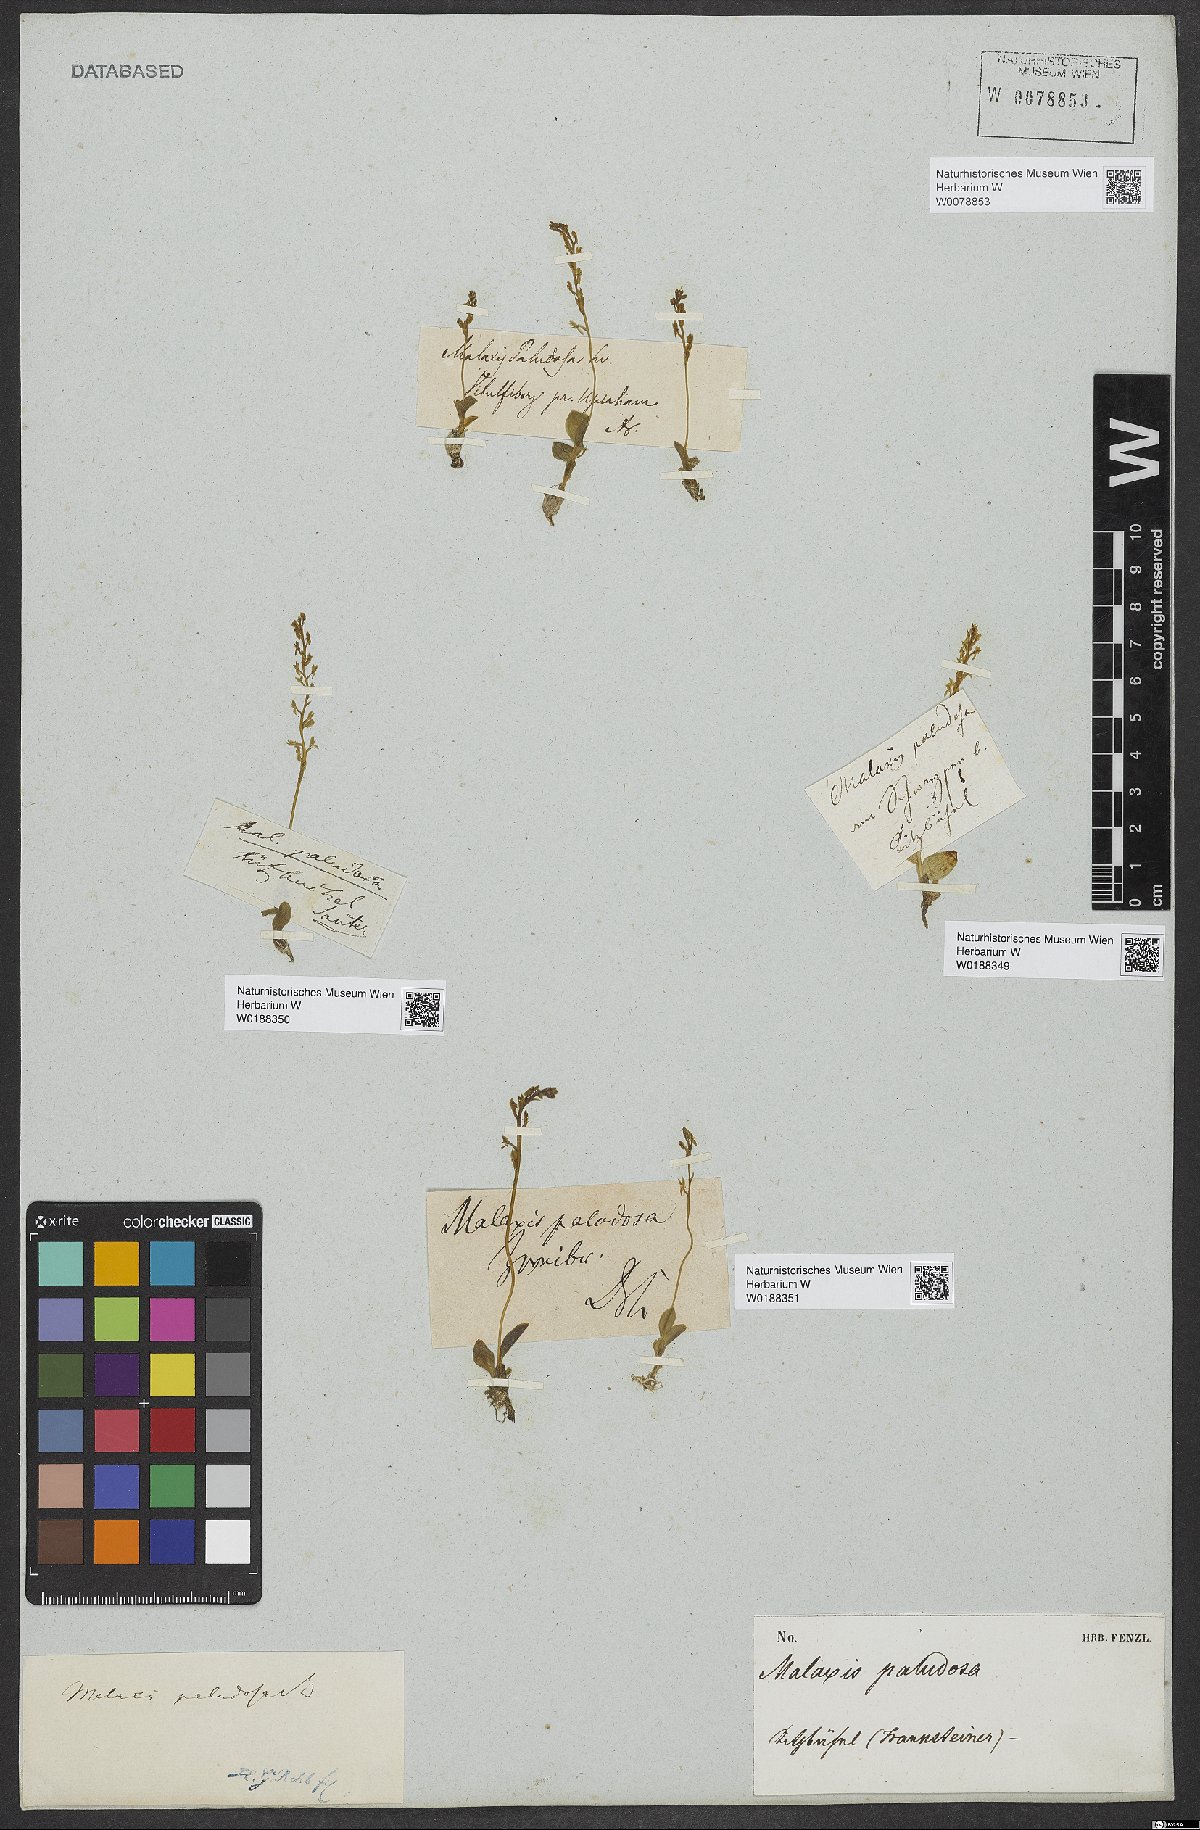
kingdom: Plantae
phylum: Tracheophyta
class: Liliopsida
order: Asparagales
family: Orchidaceae
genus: Hammarbya
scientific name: Hammarbya paludosa
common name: Bog orchid
